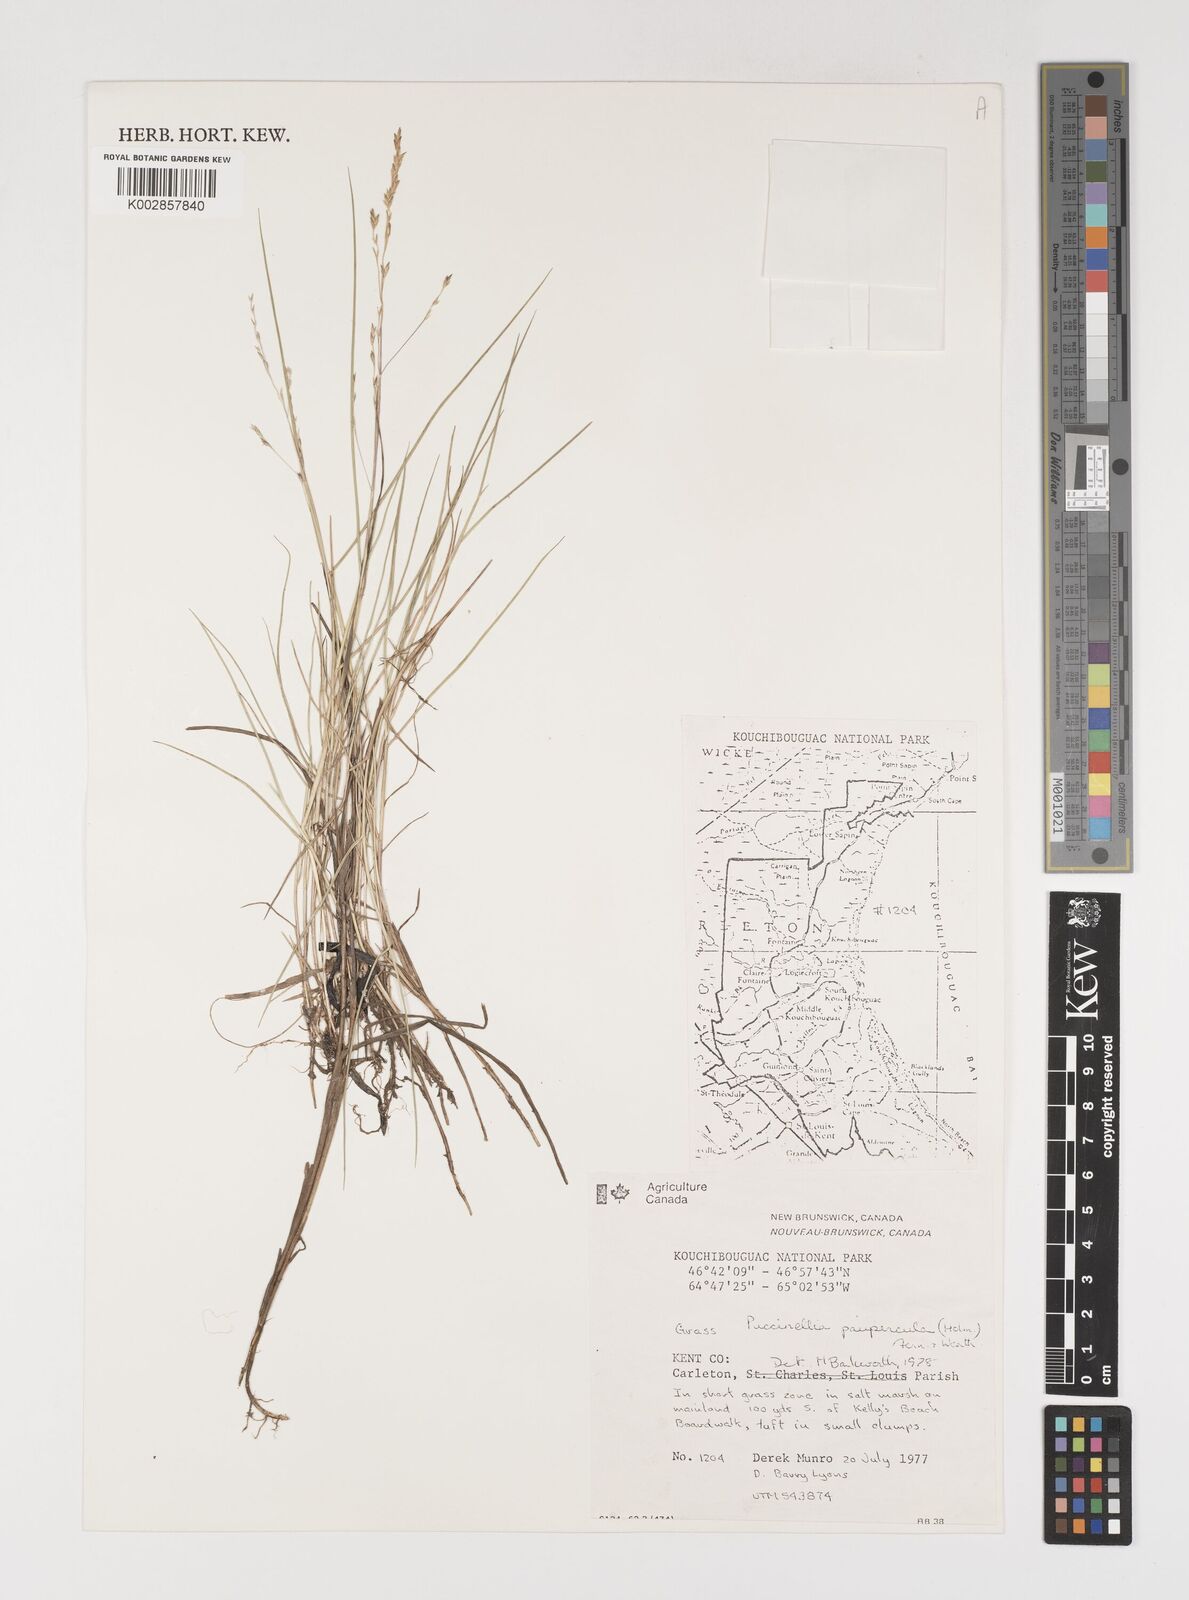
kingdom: Plantae
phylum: Tracheophyta
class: Liliopsida
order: Poales
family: Poaceae
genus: Puccinellia
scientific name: Puccinellia tenella
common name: Tundra alkaligrass
